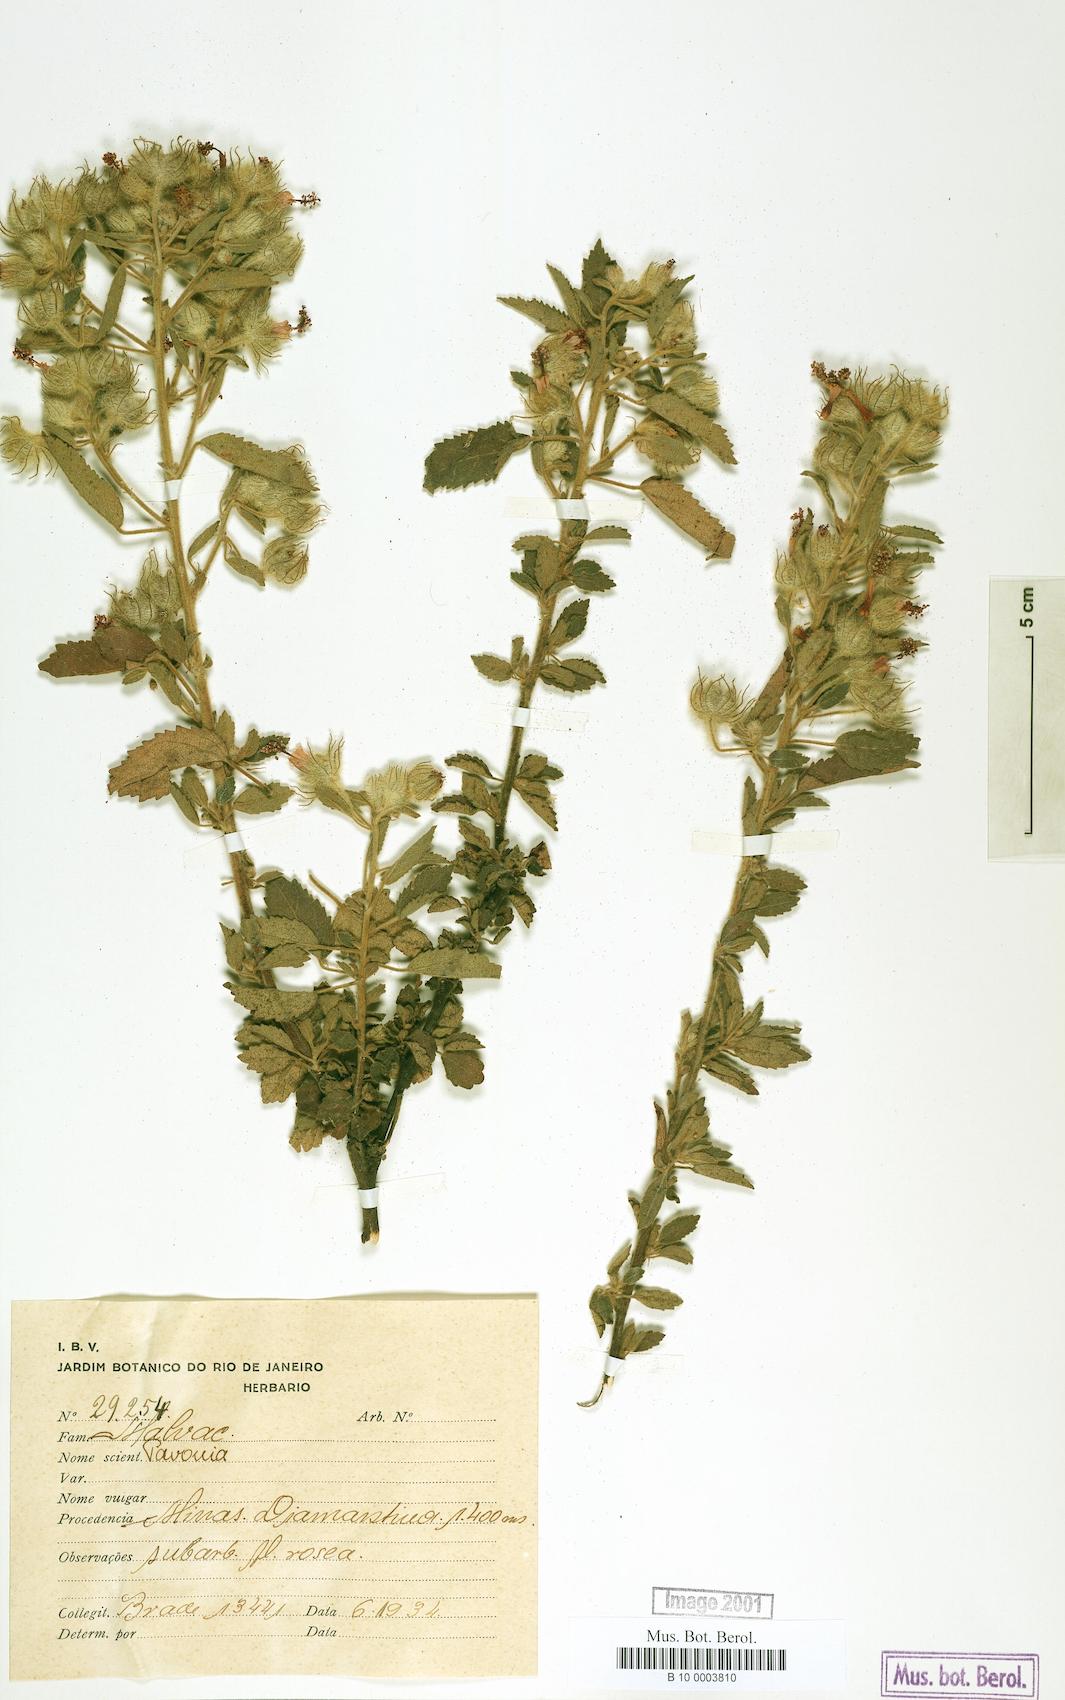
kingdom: Plantae
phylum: Tracheophyta
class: Magnoliopsida
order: Malvales
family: Malvaceae
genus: Pavonia
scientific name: Pavonia
